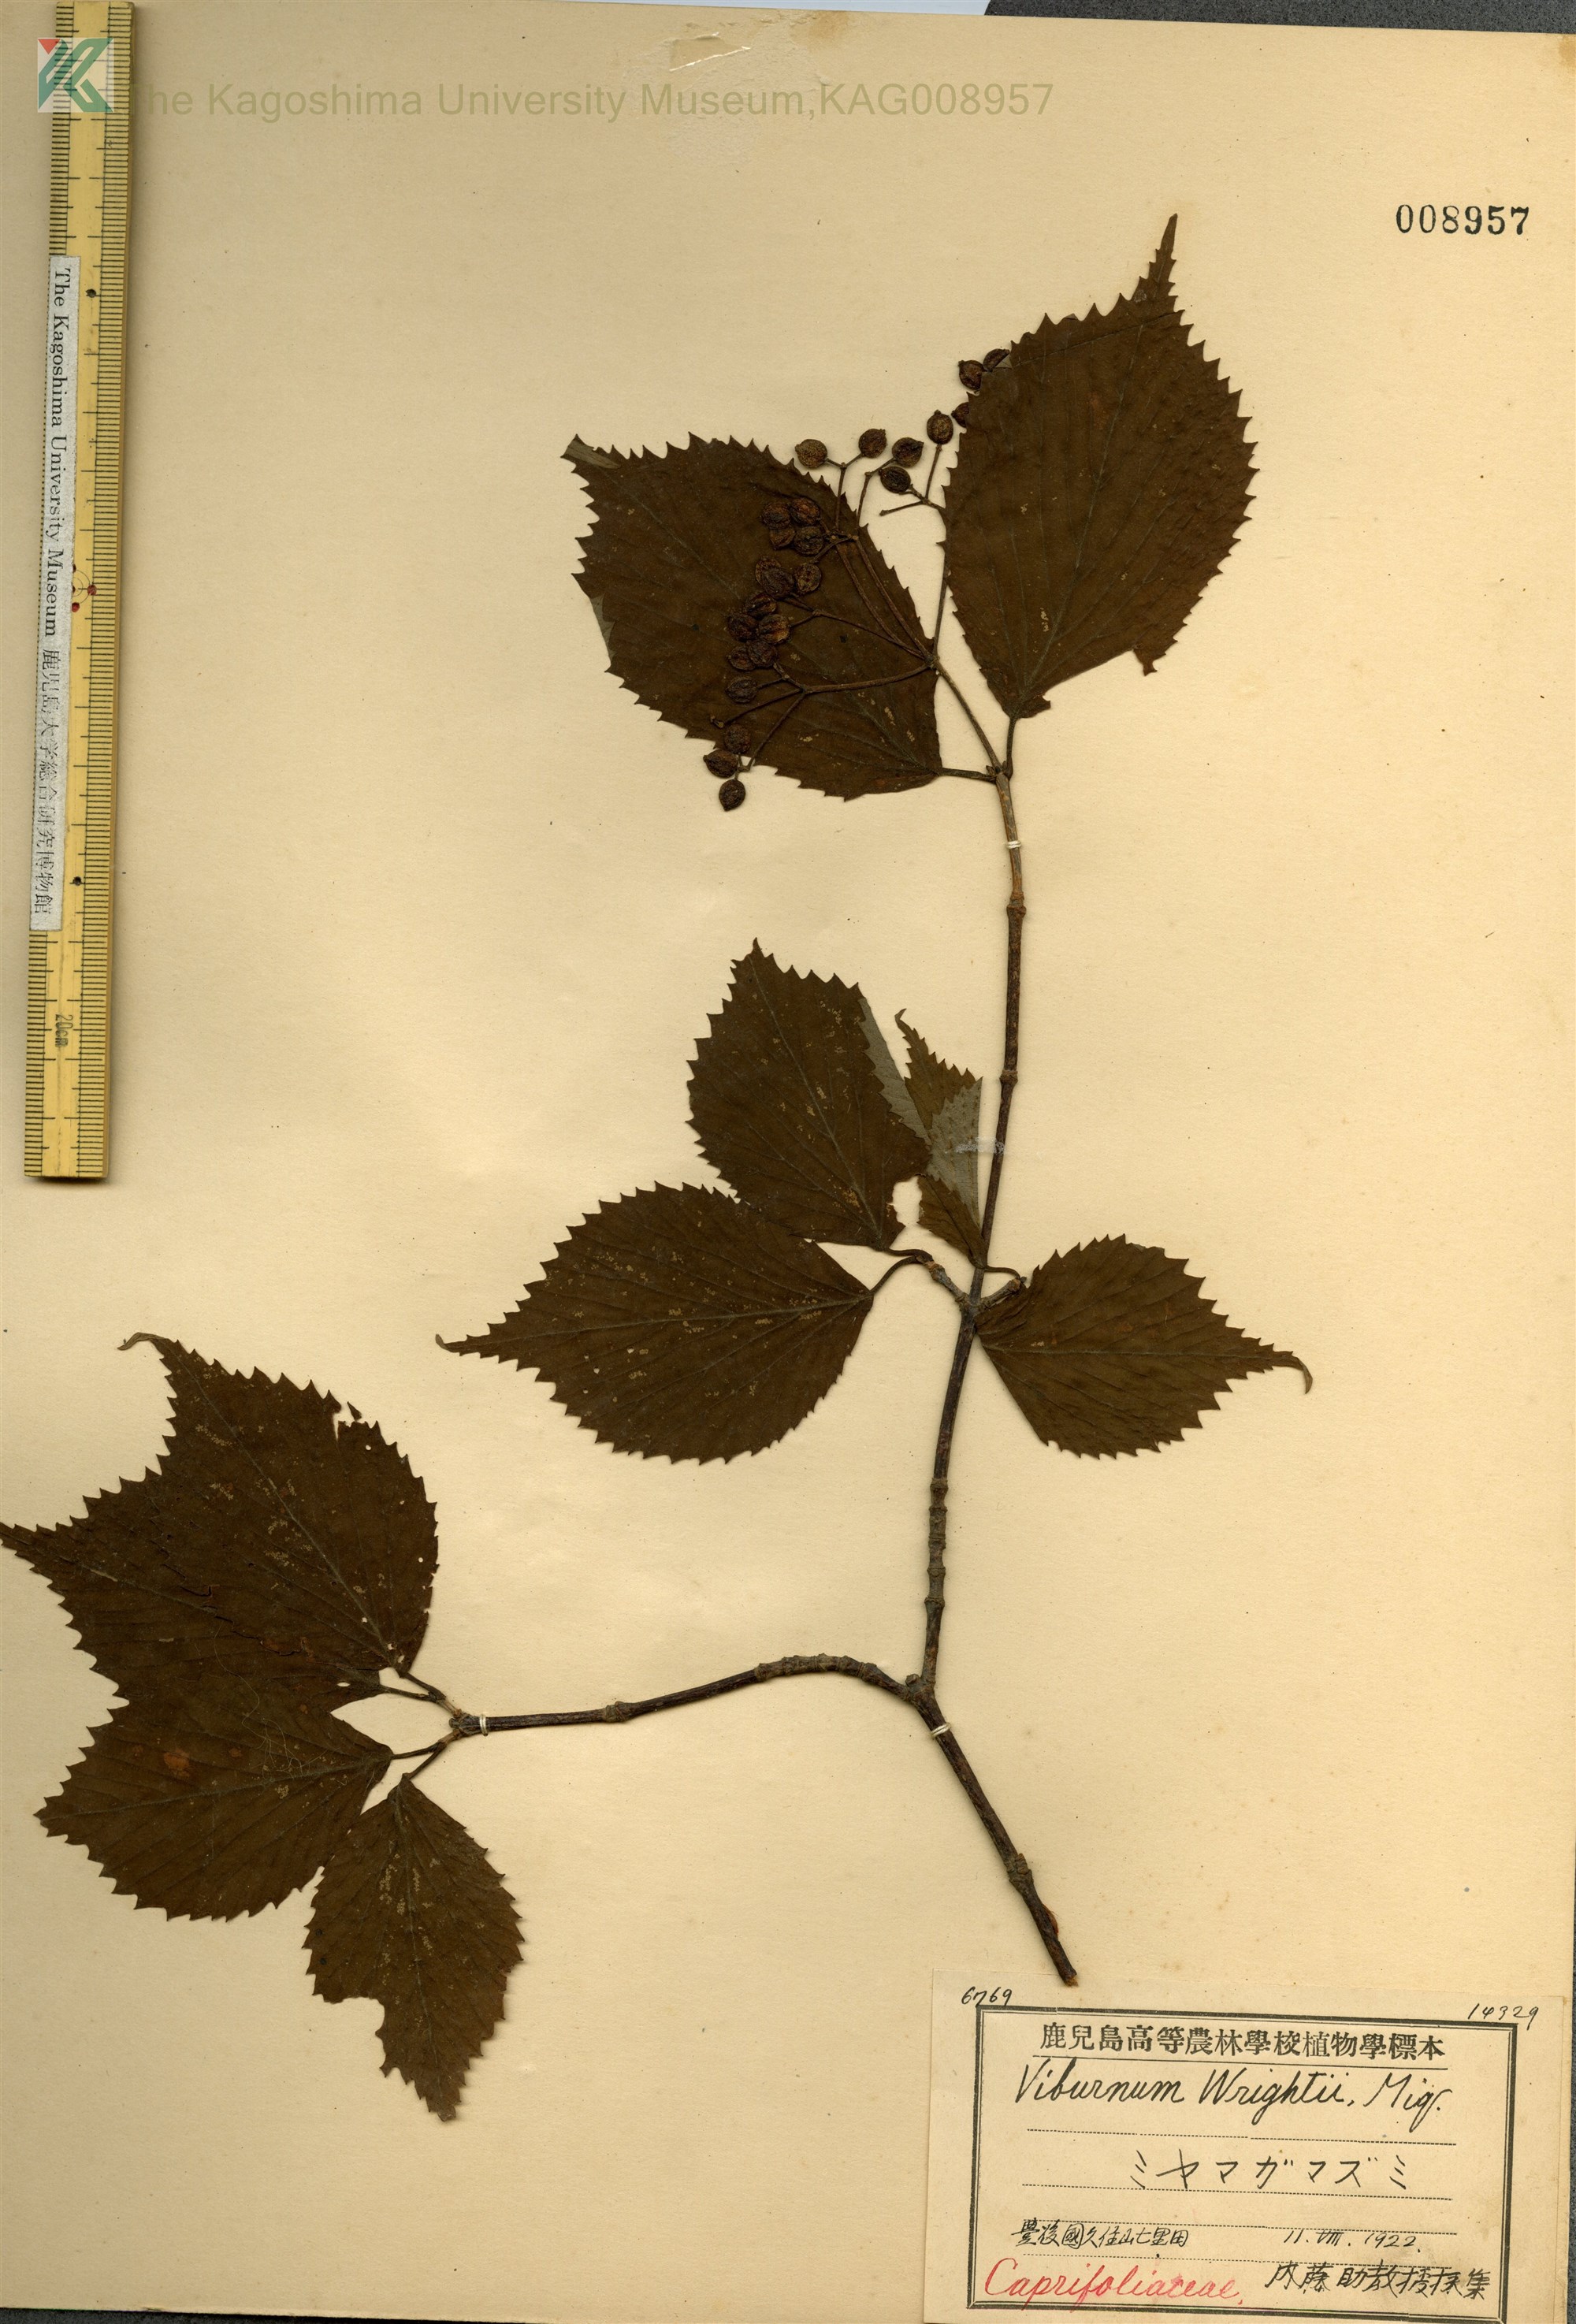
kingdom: Plantae
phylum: Tracheophyta
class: Magnoliopsida
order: Dipsacales
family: Viburnaceae
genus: Viburnum
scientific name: Viburnum wrightii
